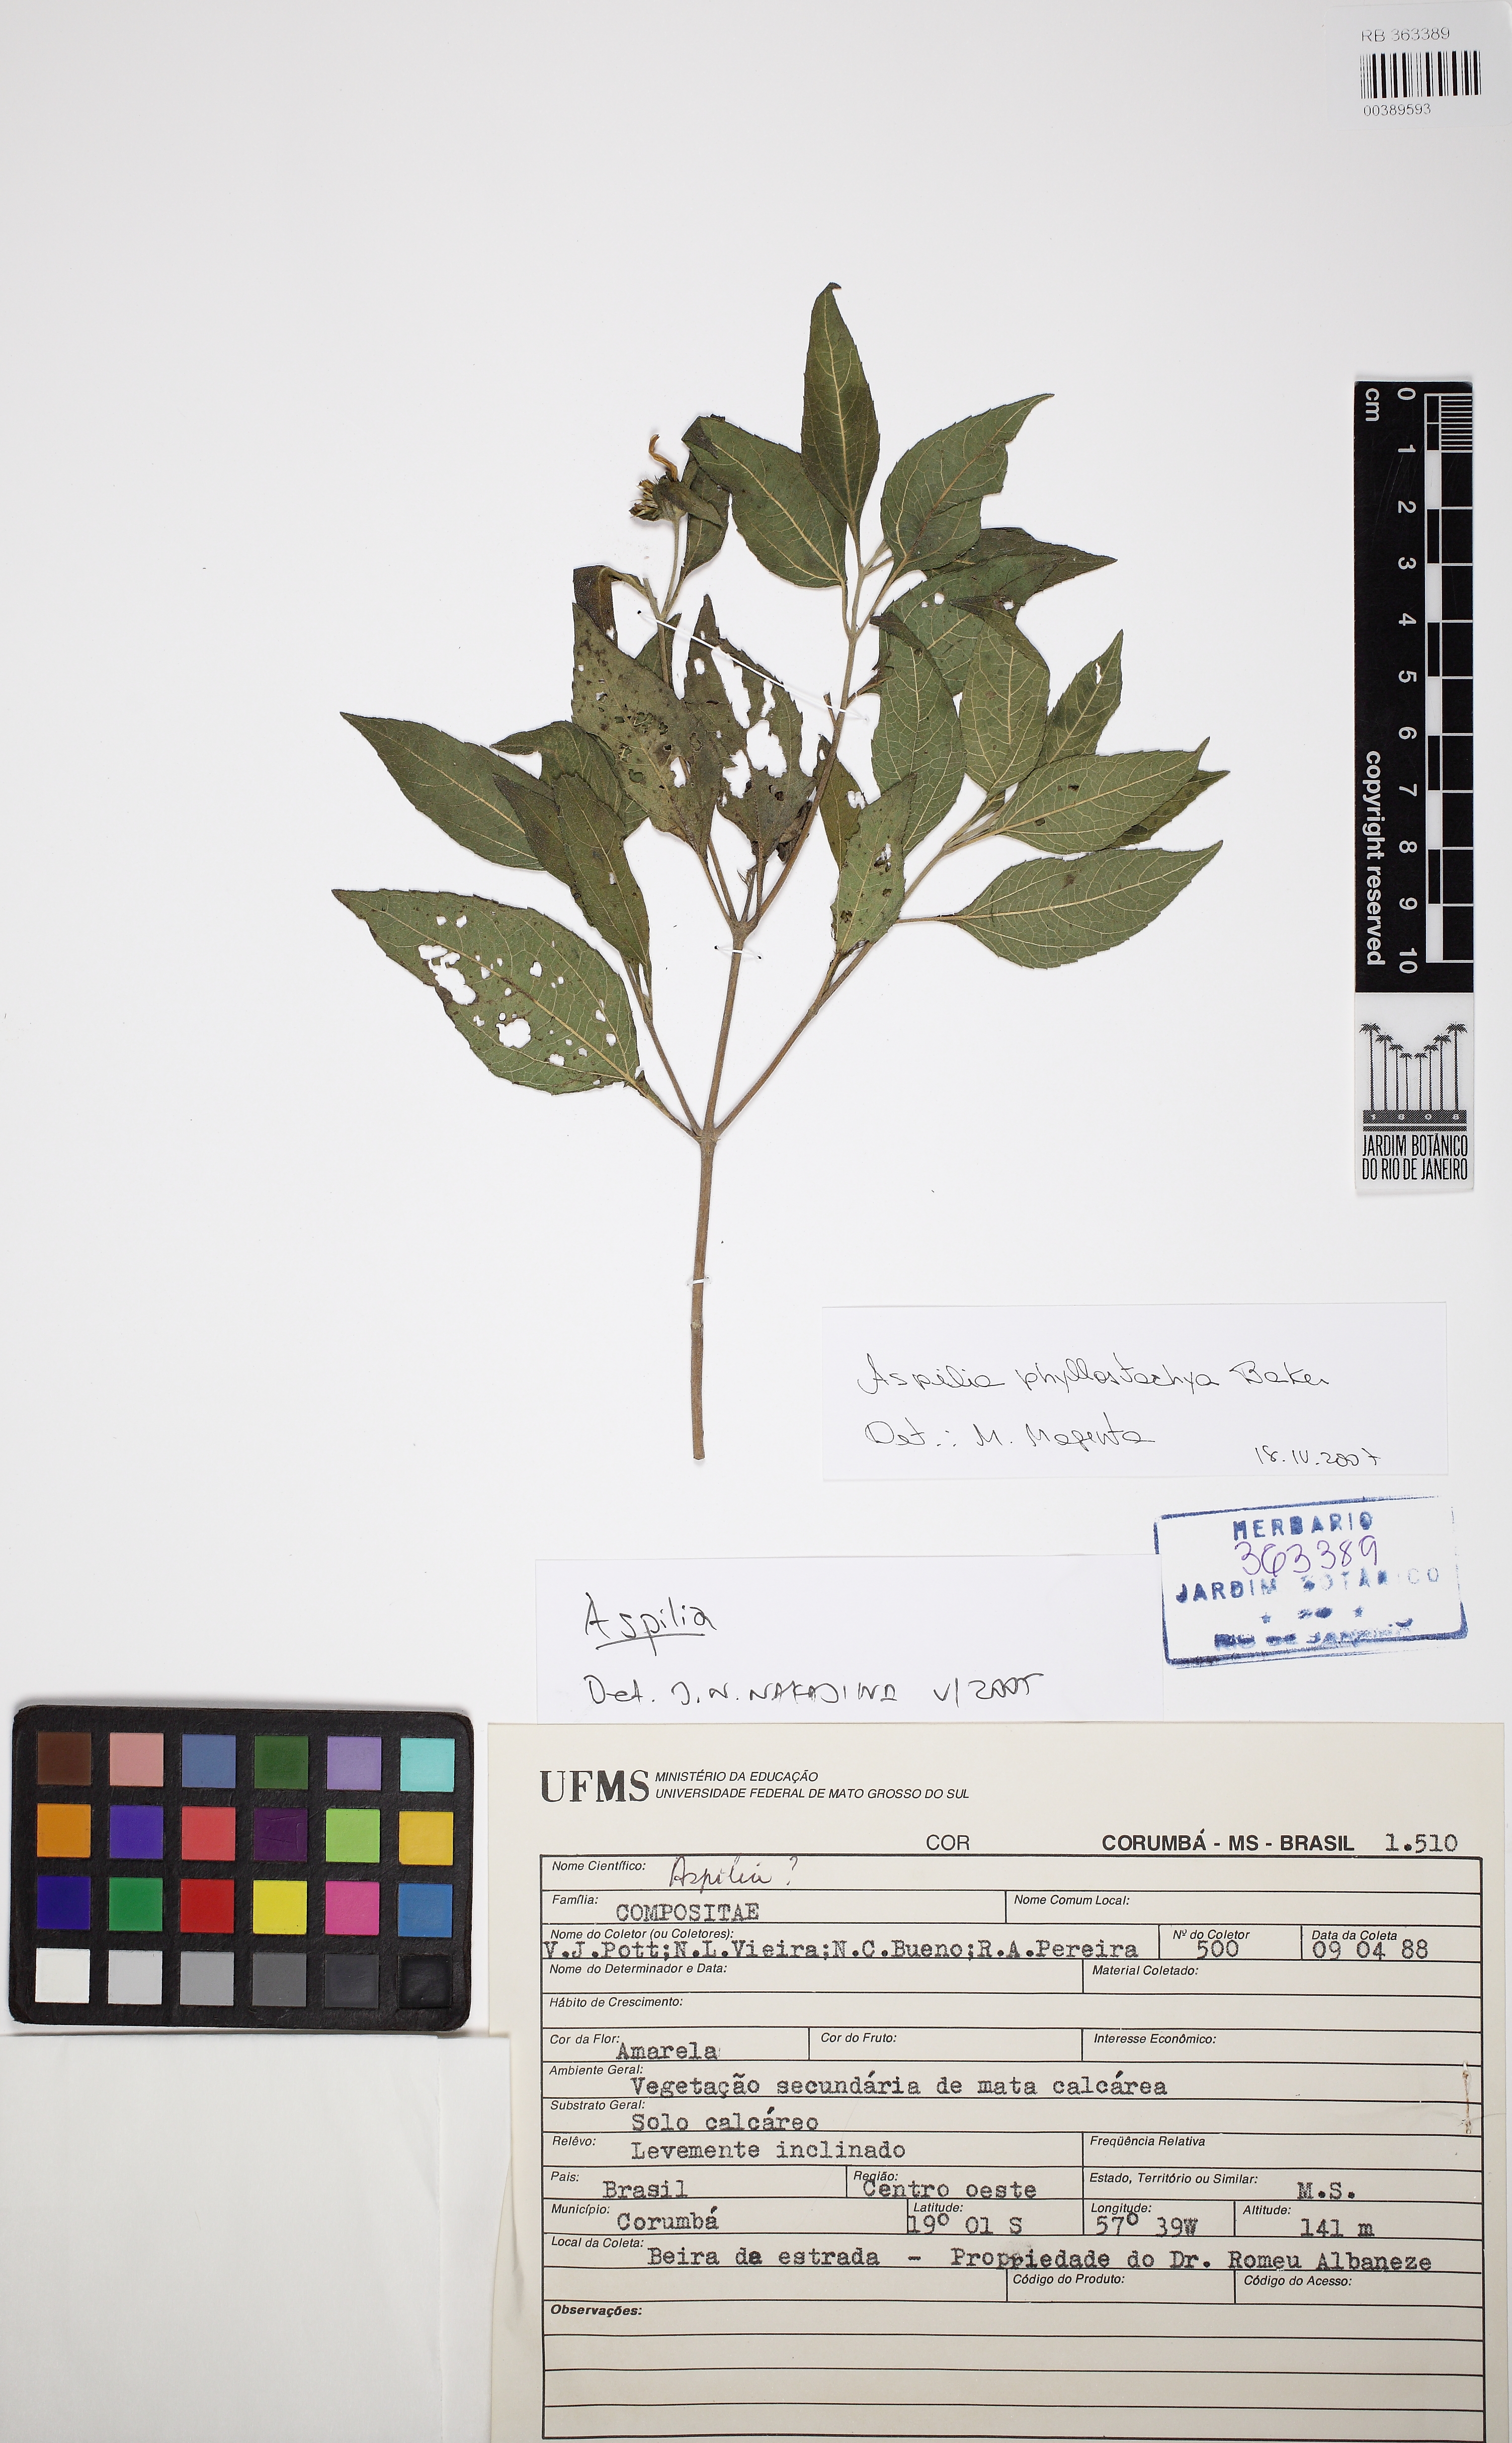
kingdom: Plantae
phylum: Tracheophyta
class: Magnoliopsida
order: Asterales
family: Asteraceae
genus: Wedelia
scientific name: Wedelia phyllostachya
